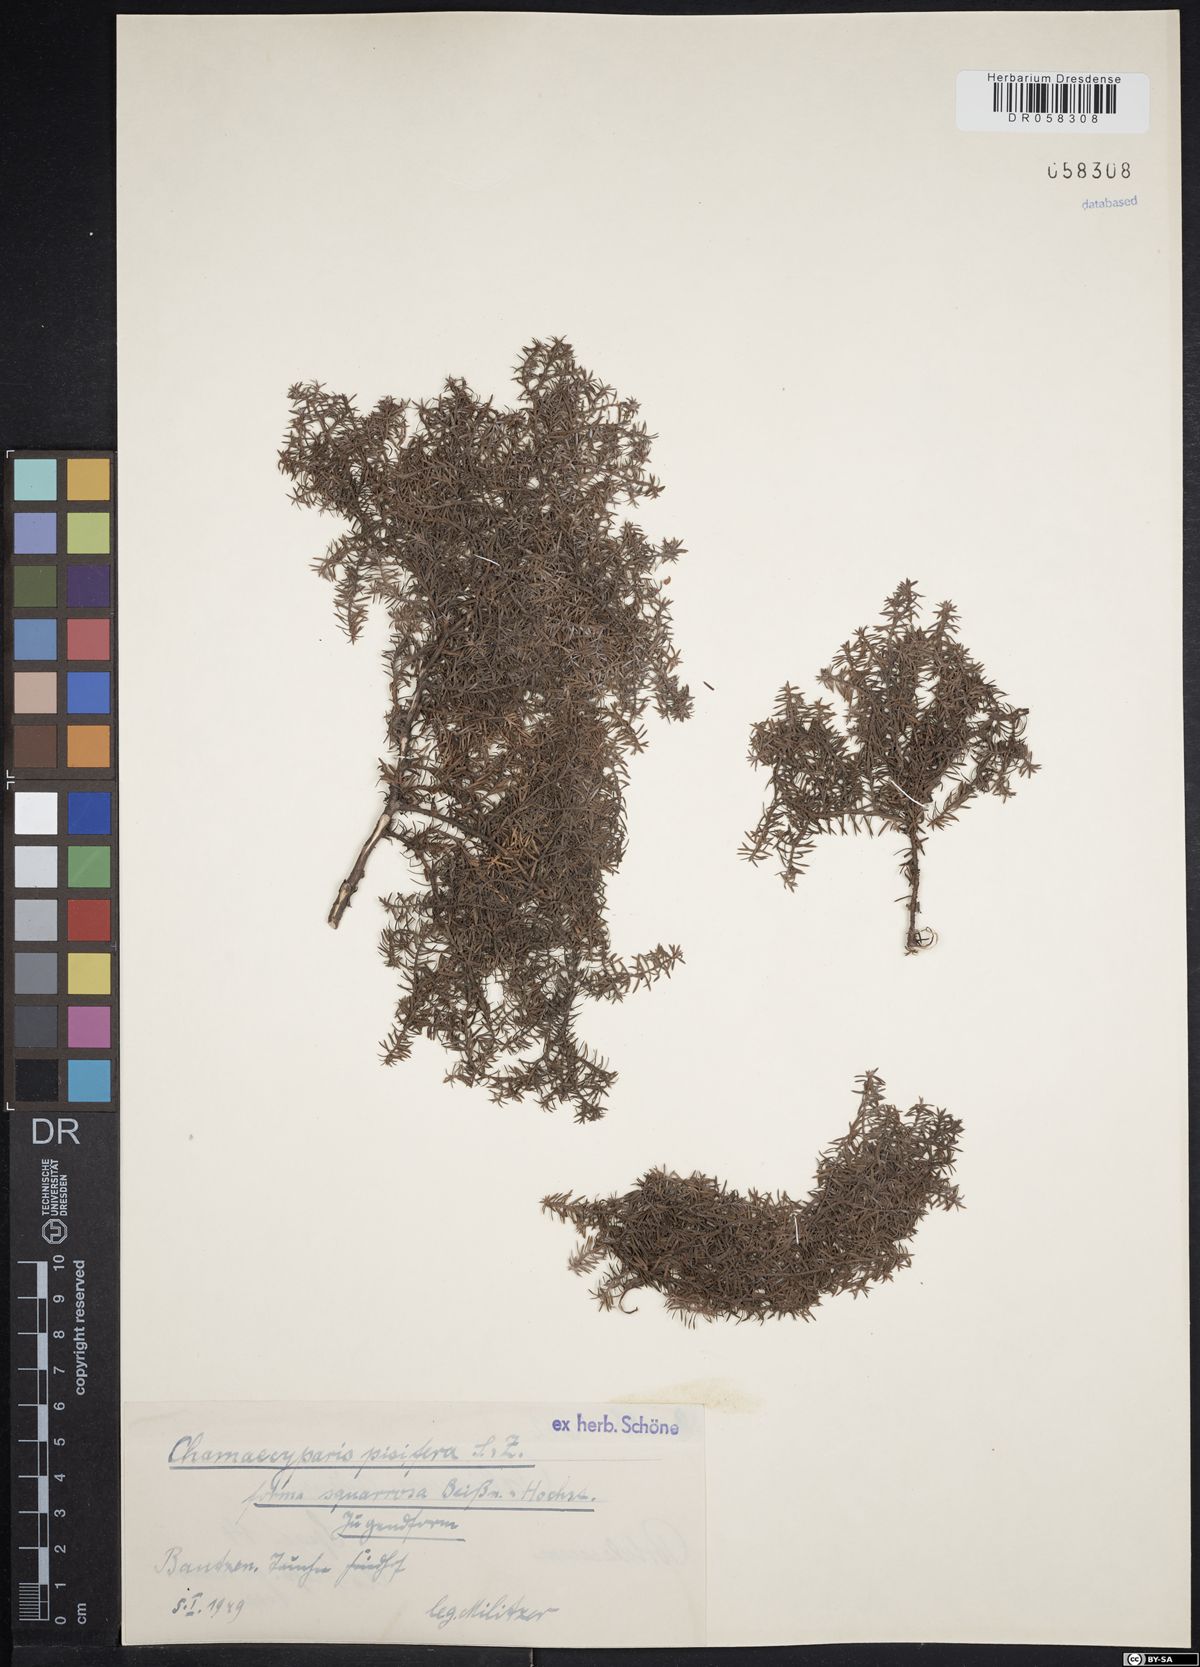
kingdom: Plantae
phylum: Tracheophyta
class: Pinopsida
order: Pinales
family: Cupressaceae
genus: Chamaecyparis
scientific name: Chamaecyparis pisifera
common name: Sawara cypress
